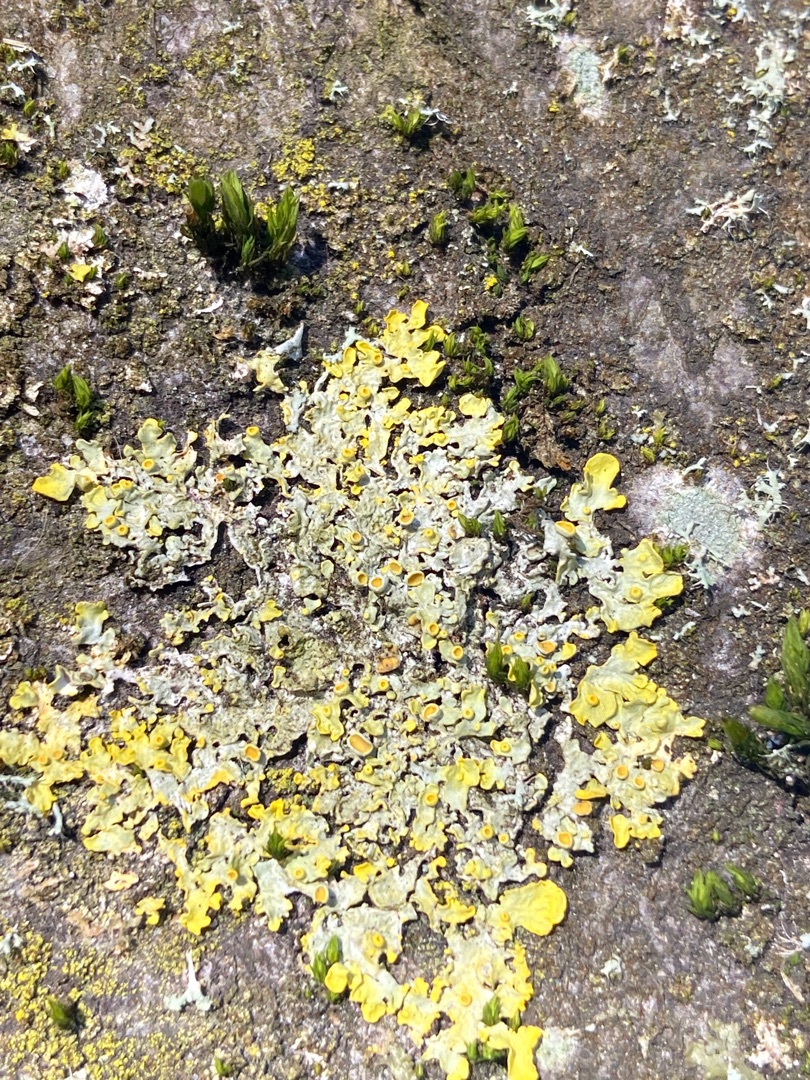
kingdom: Fungi
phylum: Ascomycota
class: Lecanoromycetes
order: Teloschistales
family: Teloschistaceae
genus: Xanthoria
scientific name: Xanthoria parietina
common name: Almindelig væggelav
